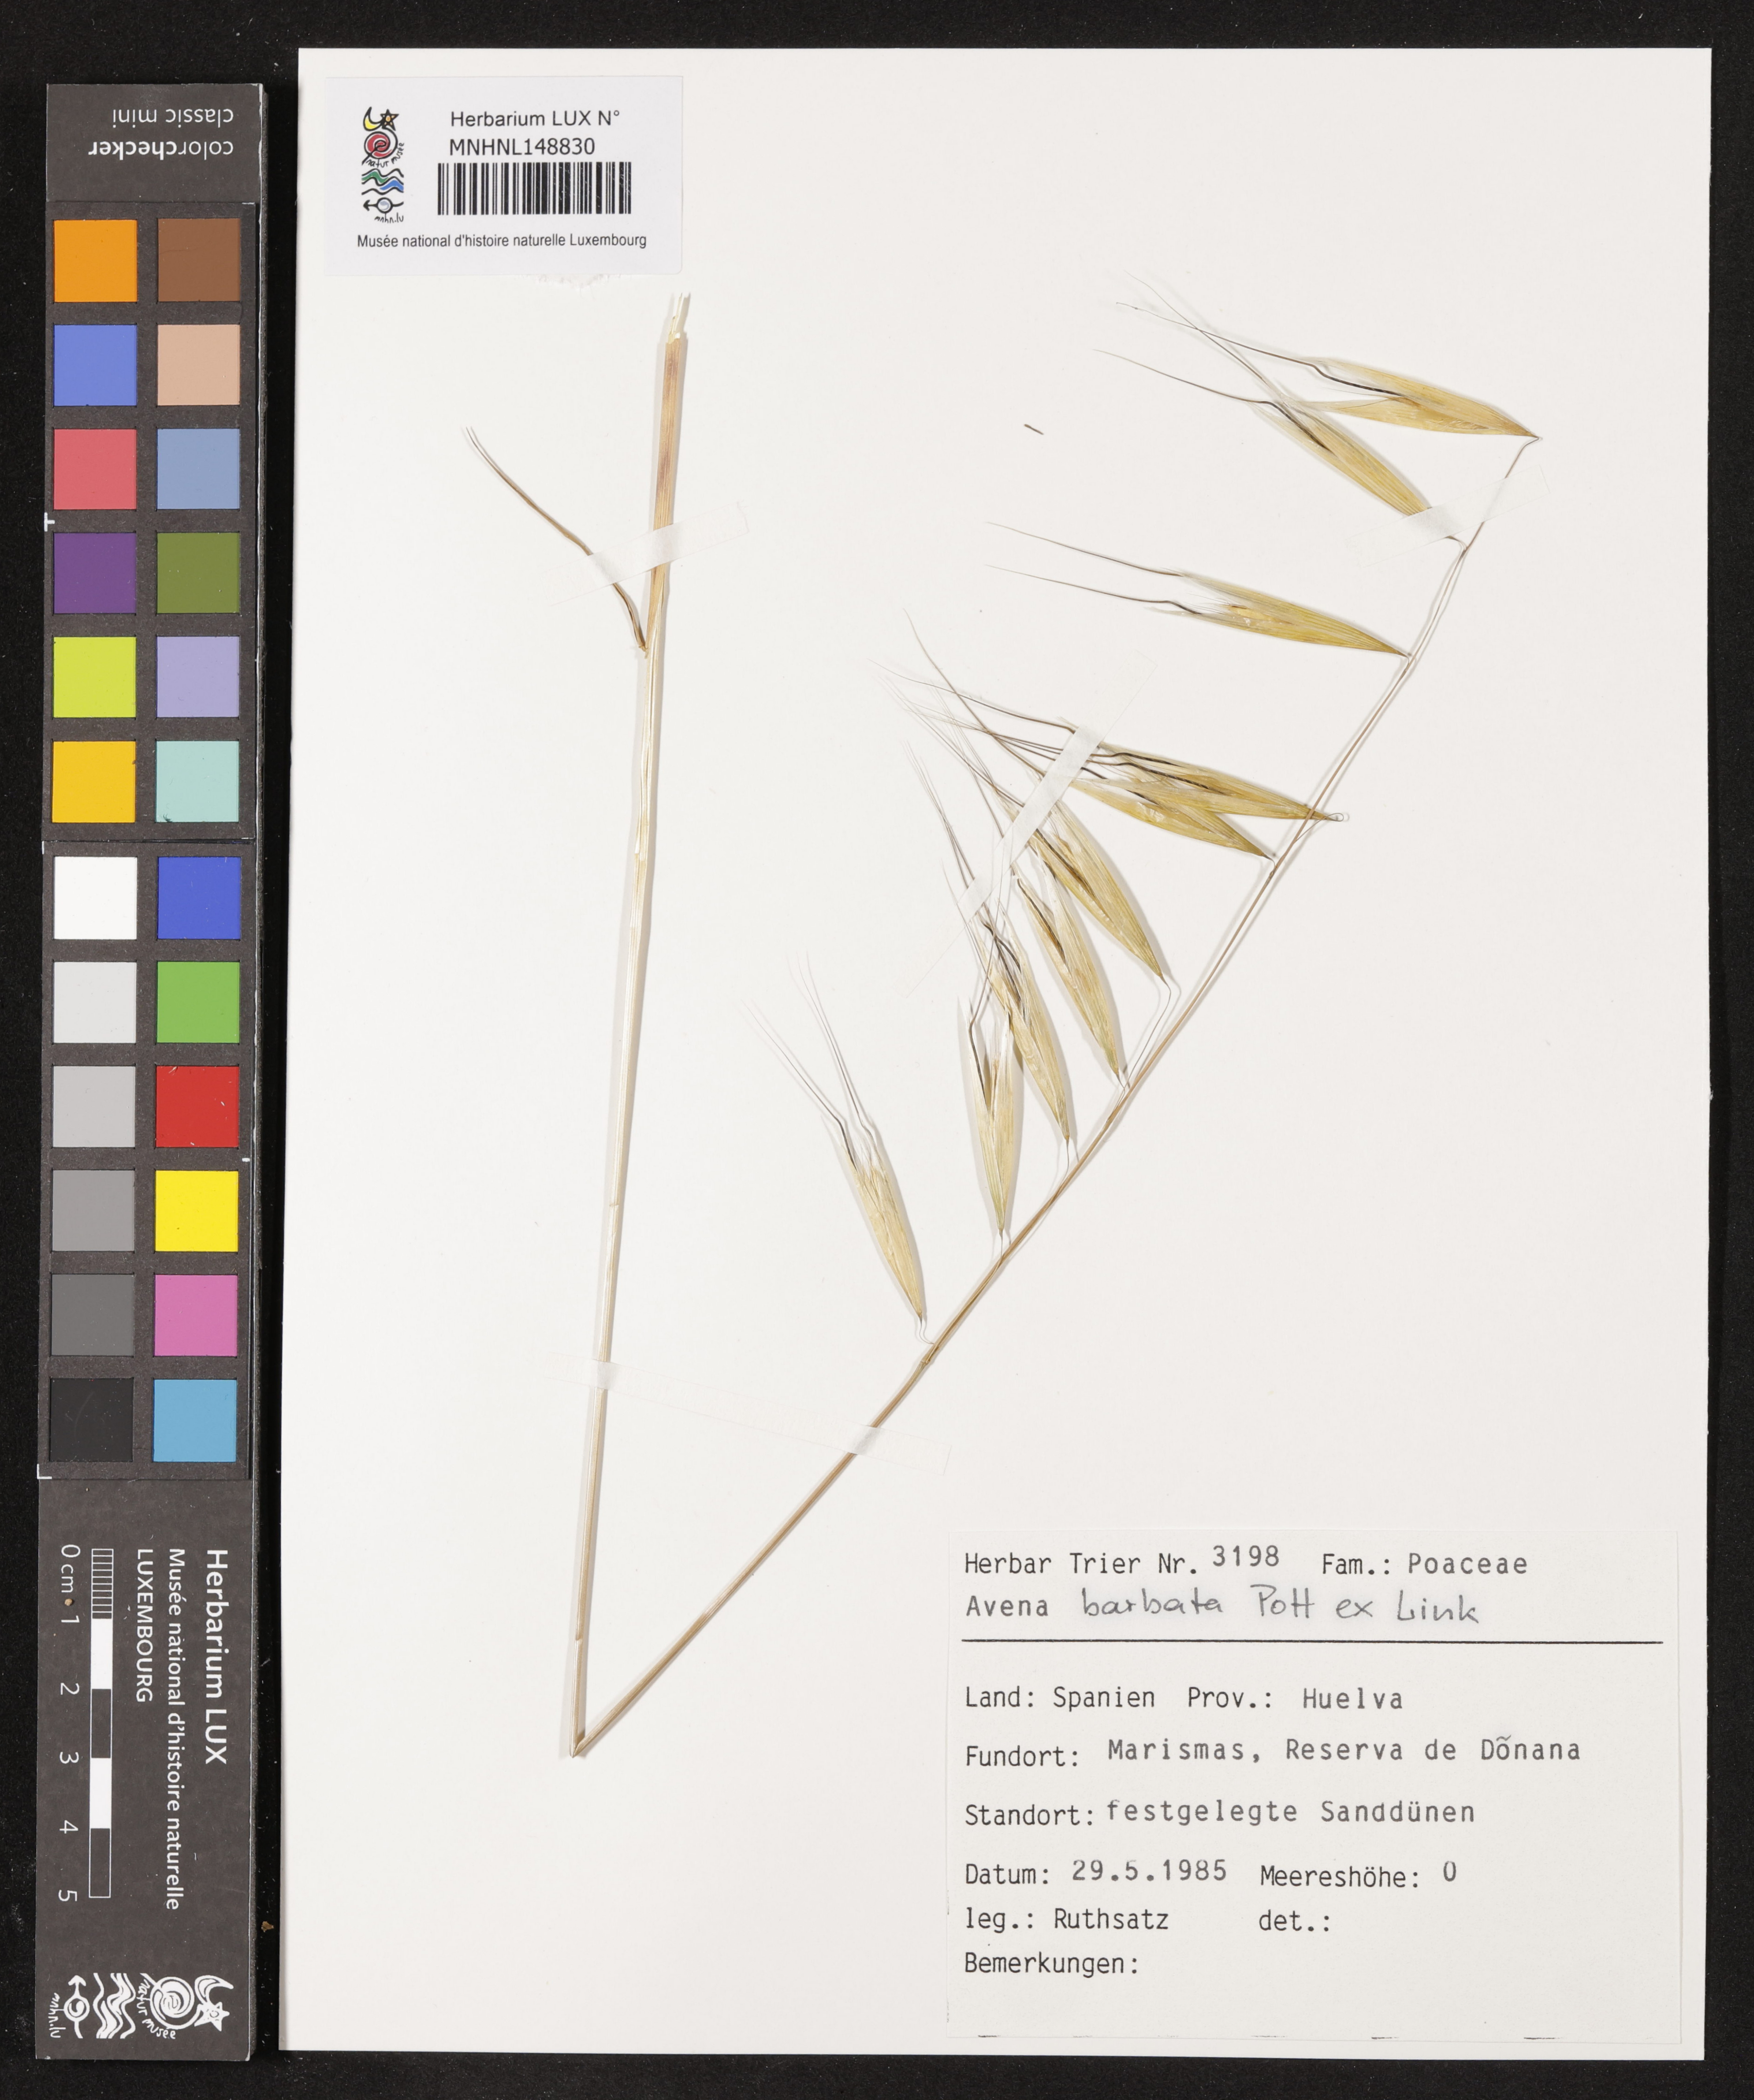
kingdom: Plantae
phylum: Tracheophyta
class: Liliopsida
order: Poales
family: Poaceae
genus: Avena
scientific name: Avena barbata
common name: Slender oat
